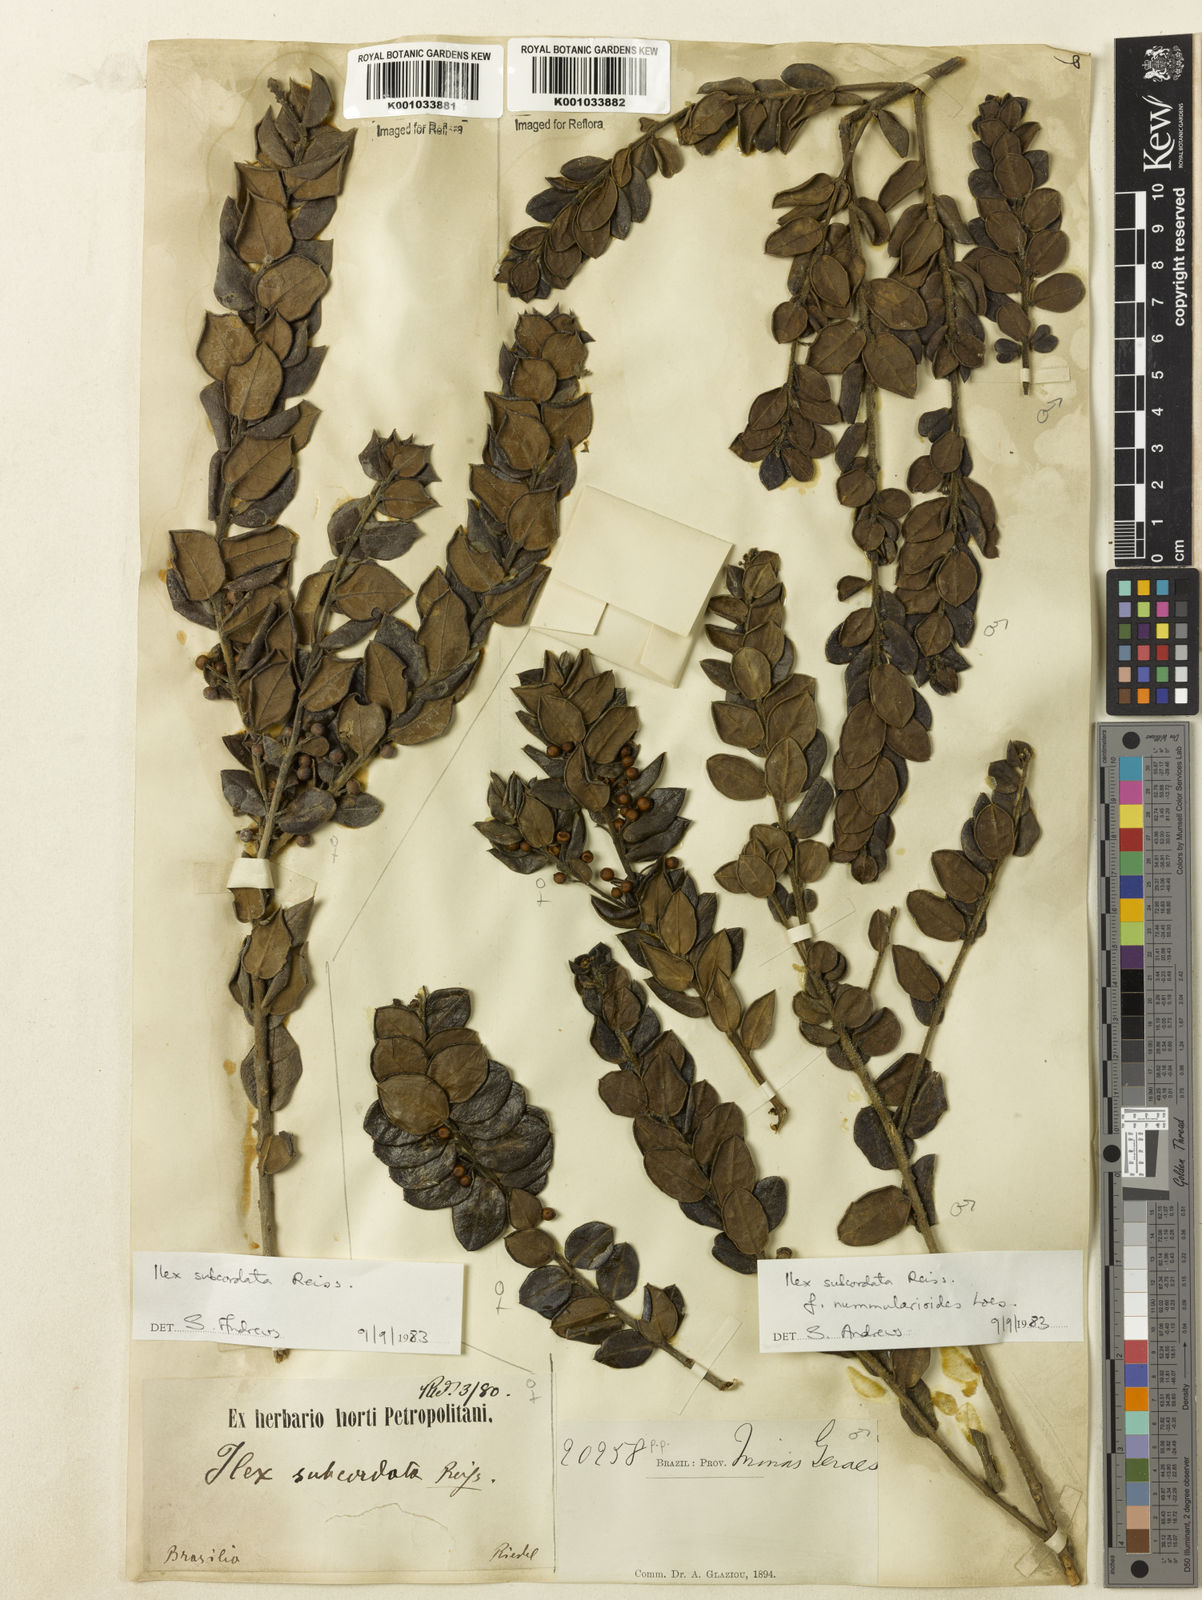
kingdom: Plantae
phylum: Tracheophyta
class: Magnoliopsida
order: Aquifoliales
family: Aquifoliaceae
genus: Ilex
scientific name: Ilex subcordata
